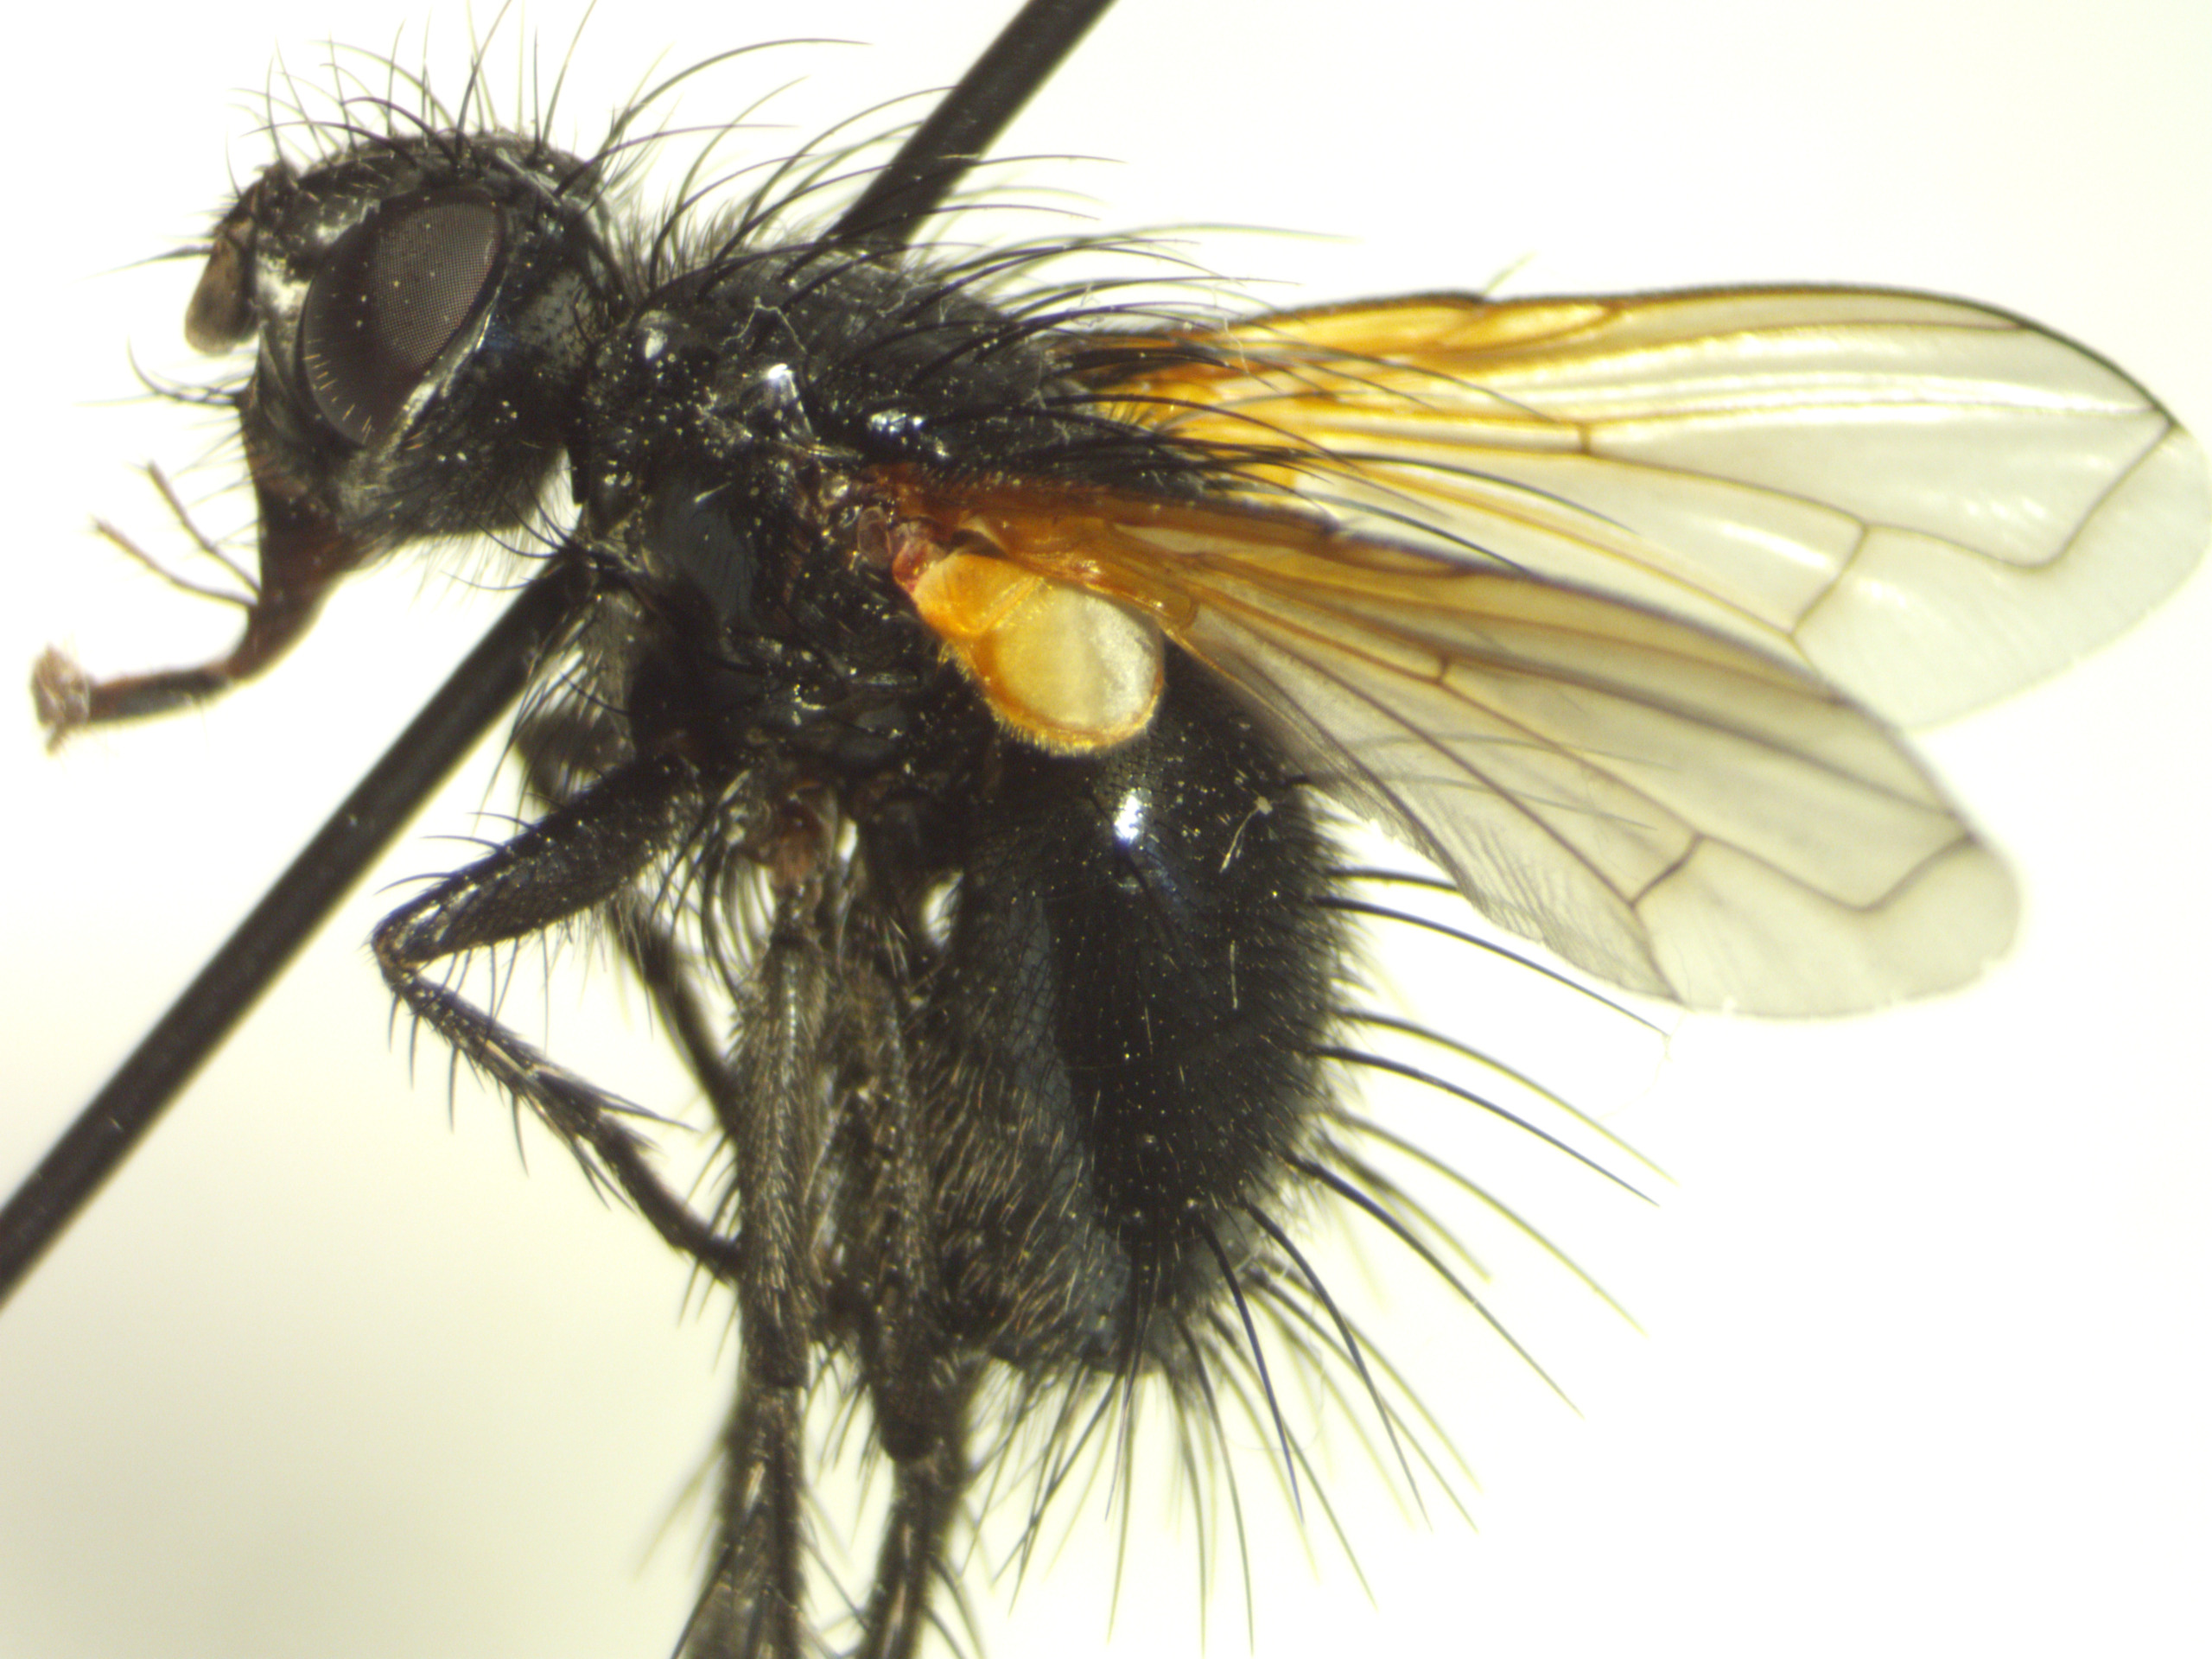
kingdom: Animalia
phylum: Arthropoda
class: Insecta
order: Diptera
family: Tachinidae
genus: Zophomyia
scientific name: Zophomyia temula
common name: Gulvinget snylteflue
